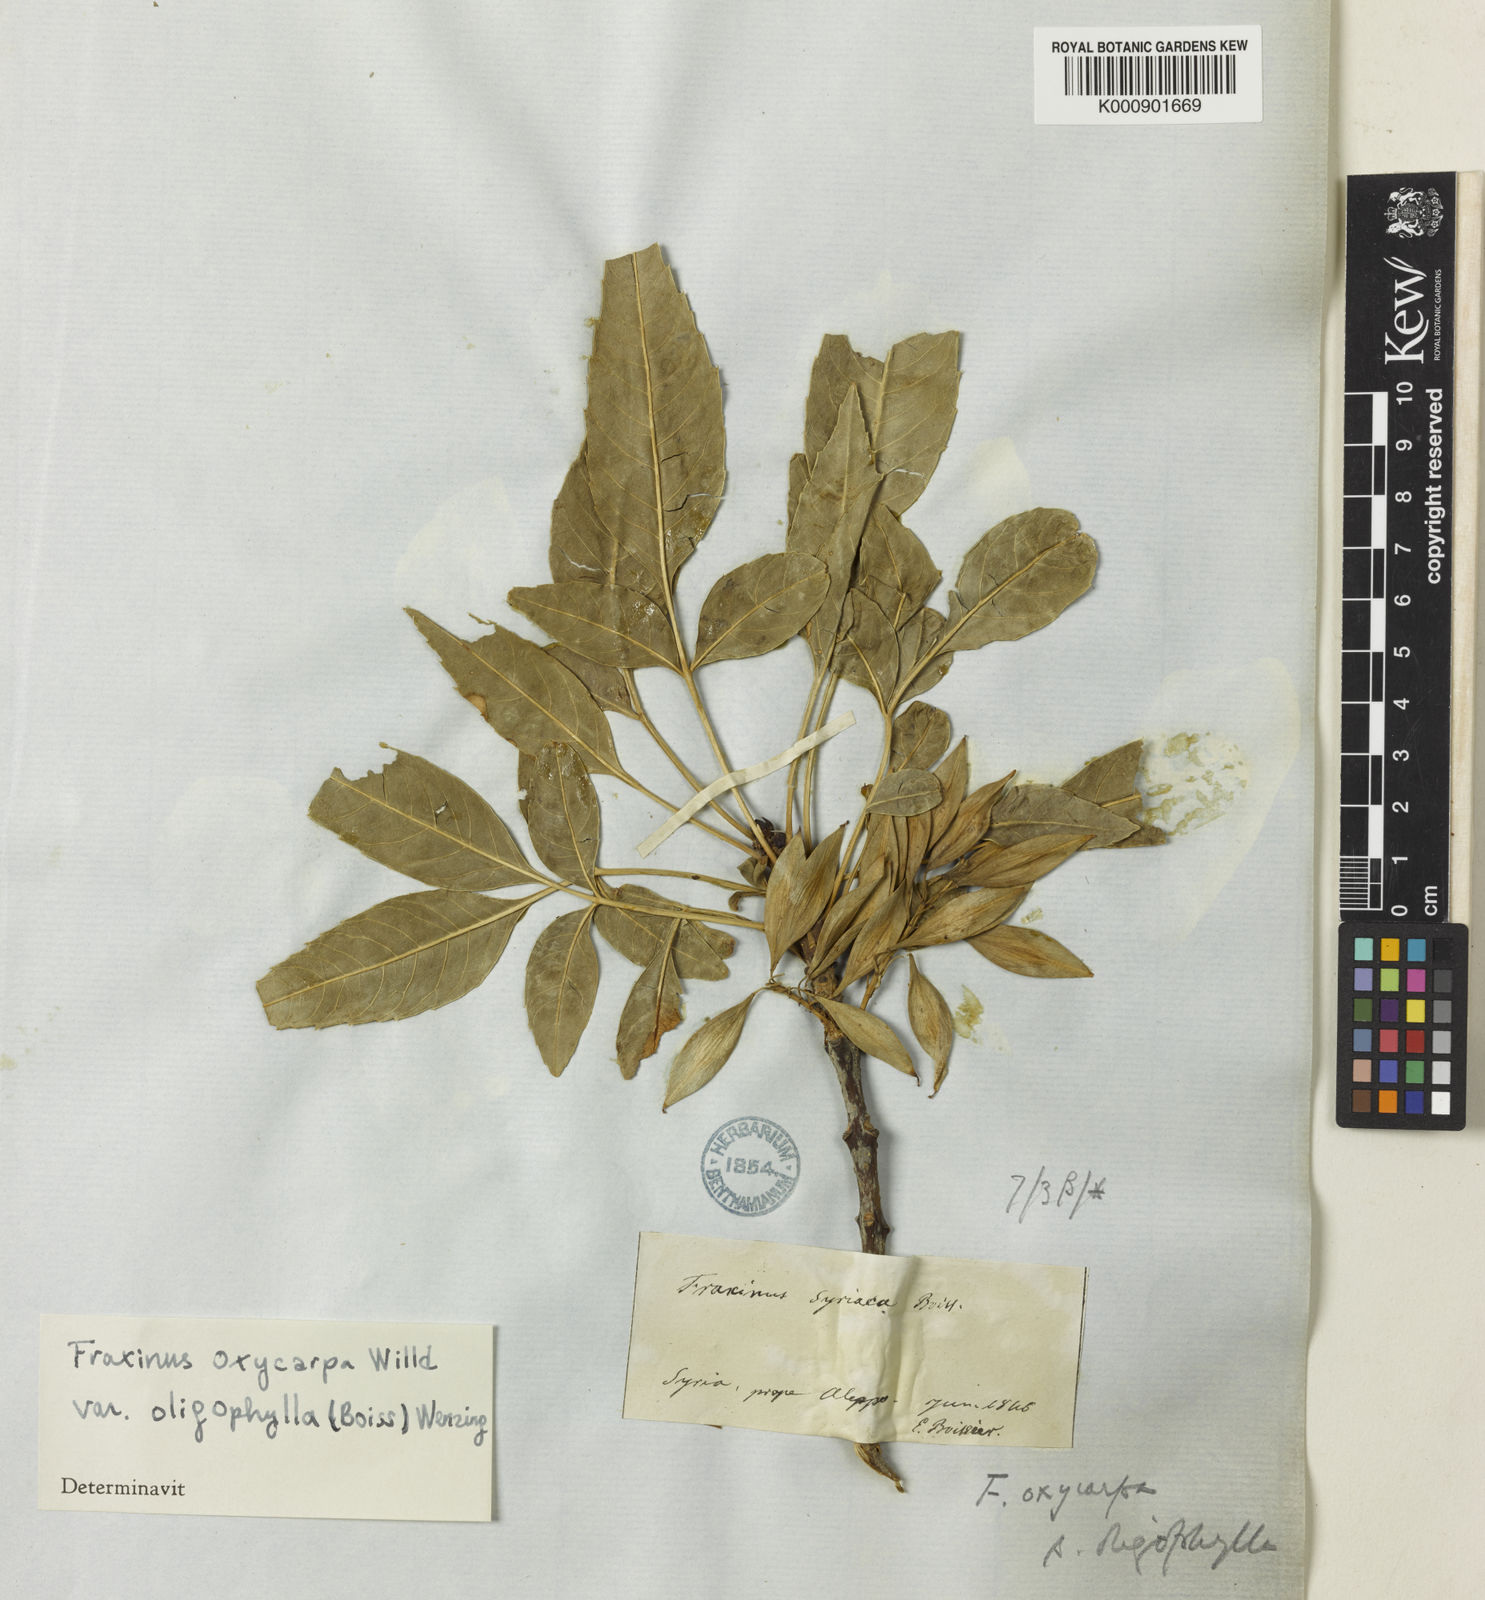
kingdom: Plantae
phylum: Tracheophyta
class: Magnoliopsida
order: Lamiales
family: Oleaceae
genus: Fraxinus
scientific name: Fraxinus
